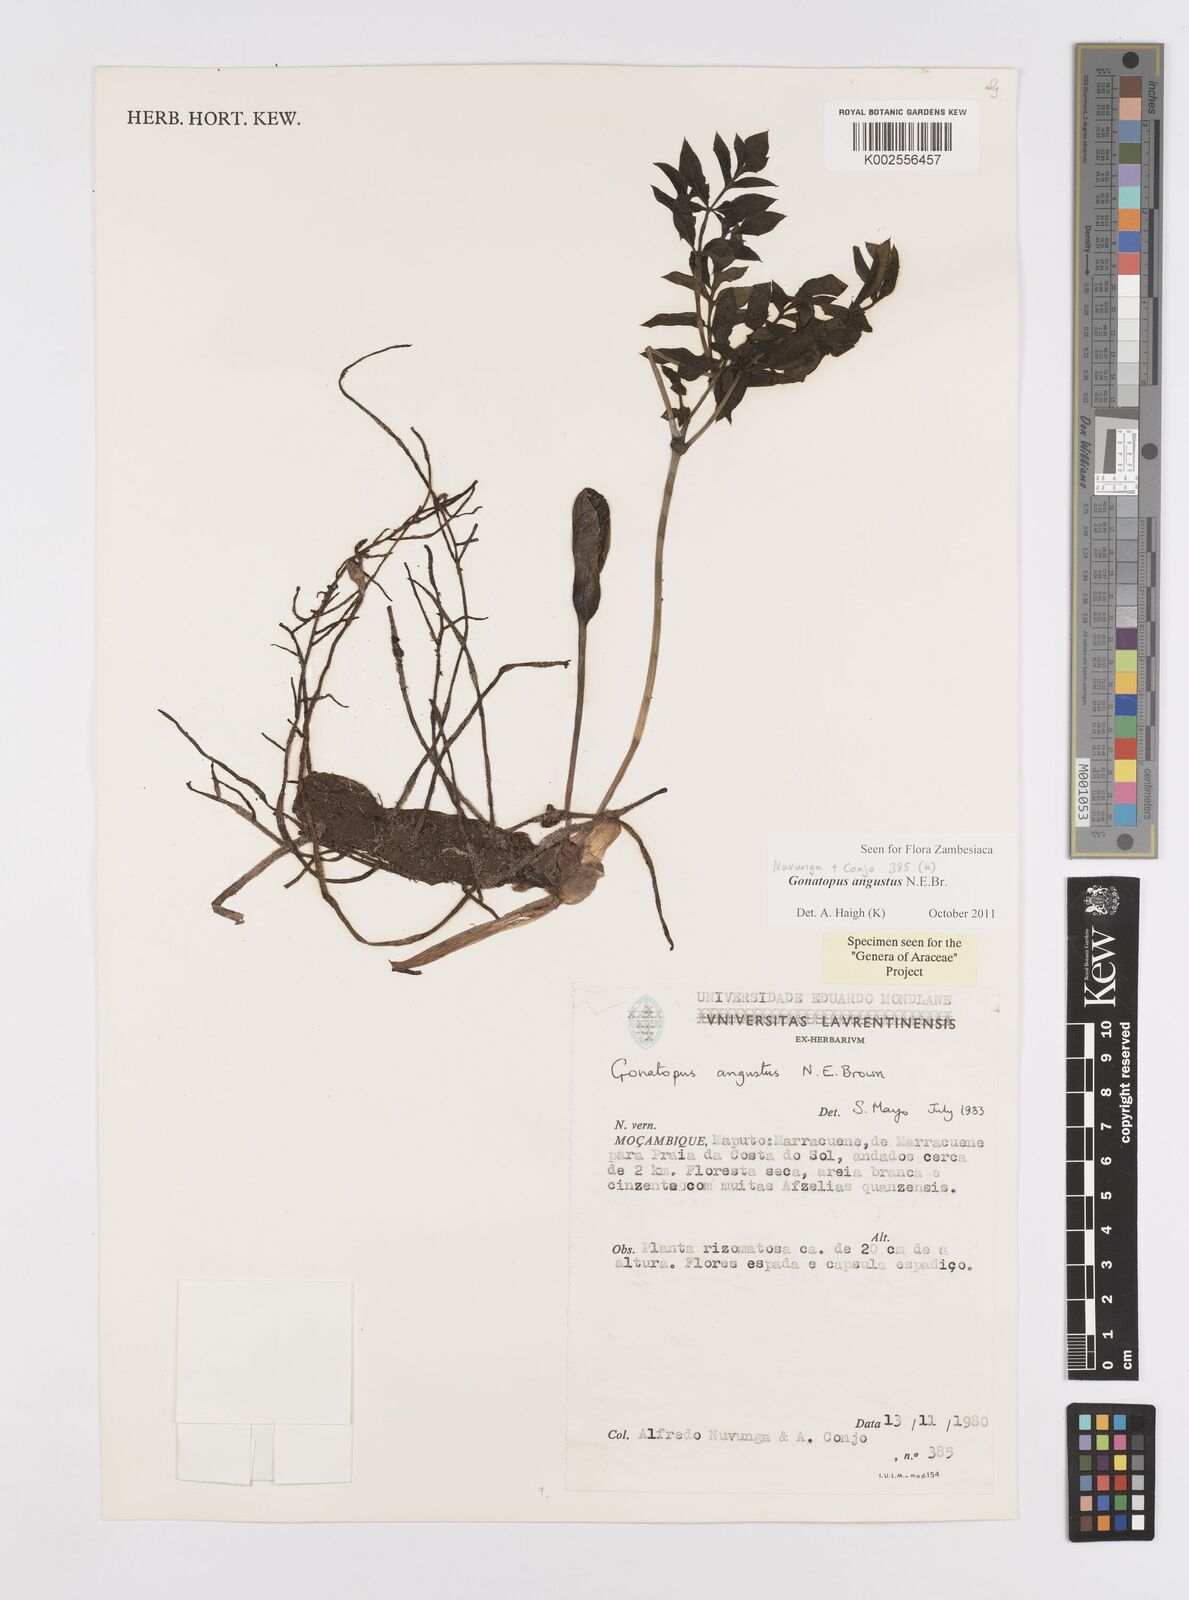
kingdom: Plantae
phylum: Tracheophyta
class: Liliopsida
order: Alismatales
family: Araceae
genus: Gonatopus
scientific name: Gonatopus angustus
